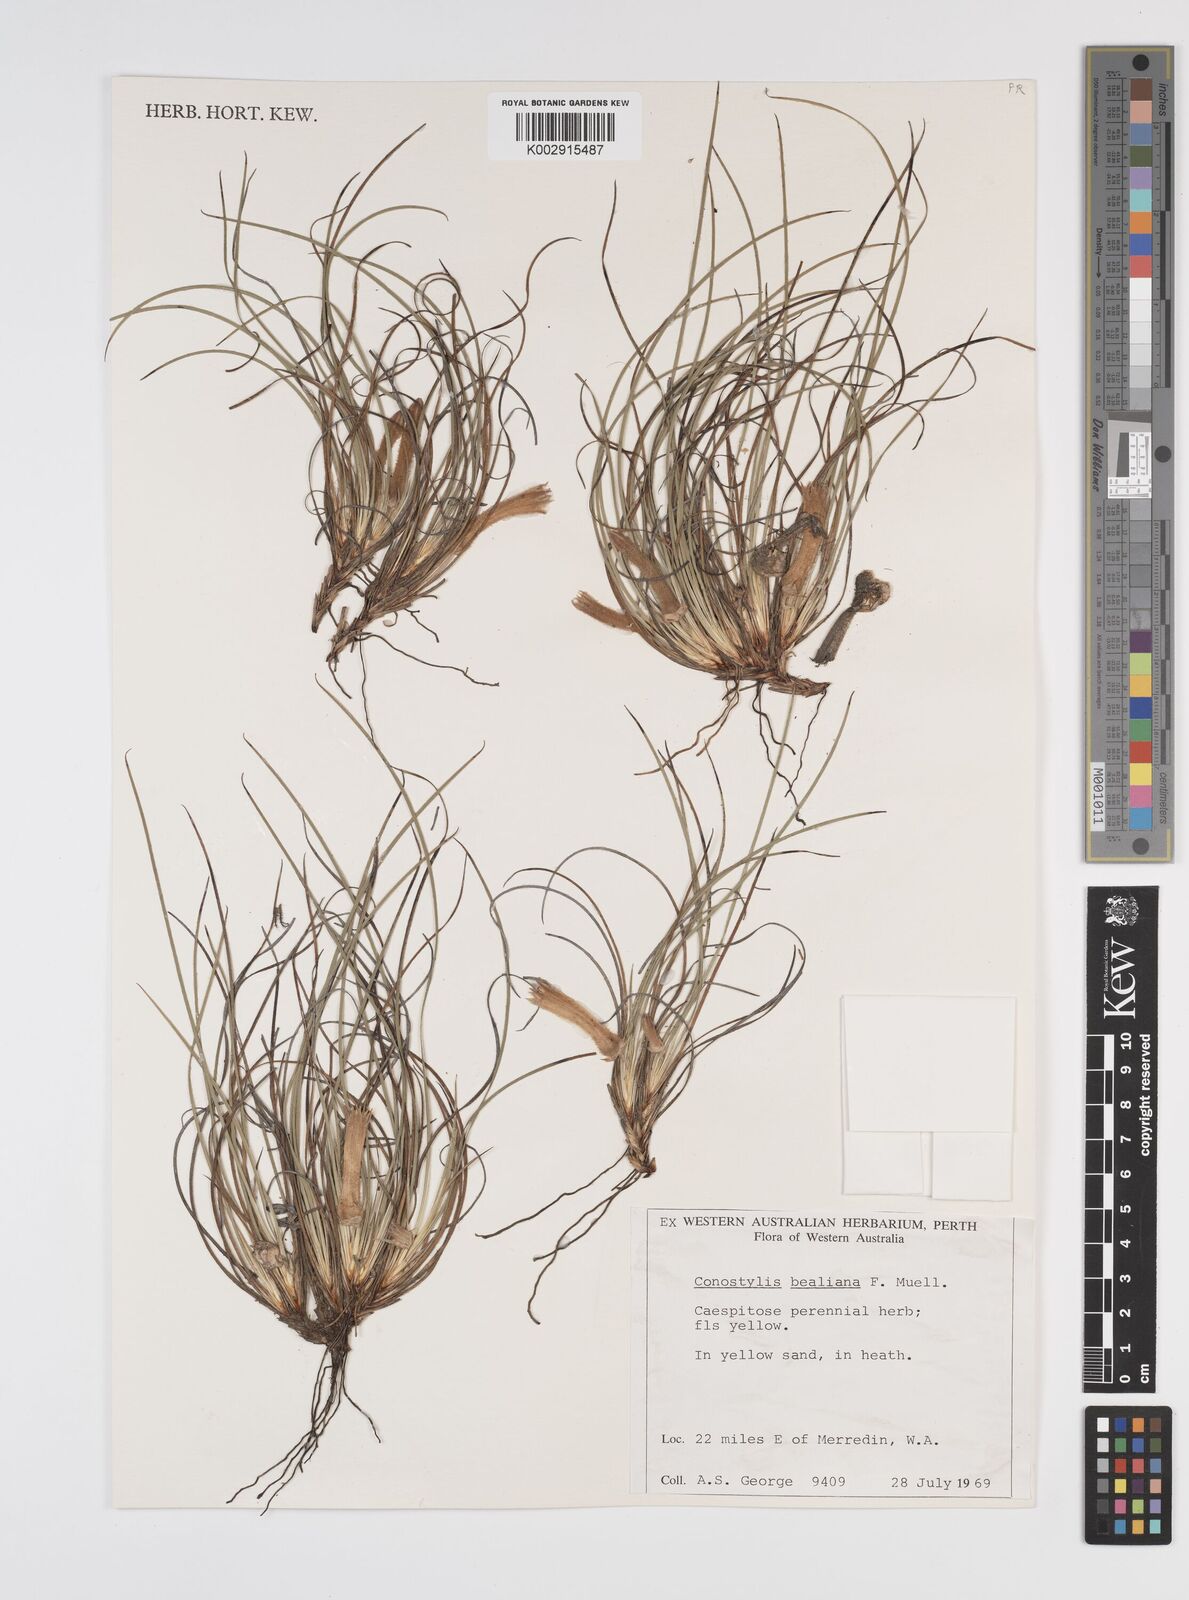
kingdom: Plantae
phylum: Tracheophyta
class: Liliopsida
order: Commelinales
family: Haemodoraceae
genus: Conostylis
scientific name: Conostylis bealiana
